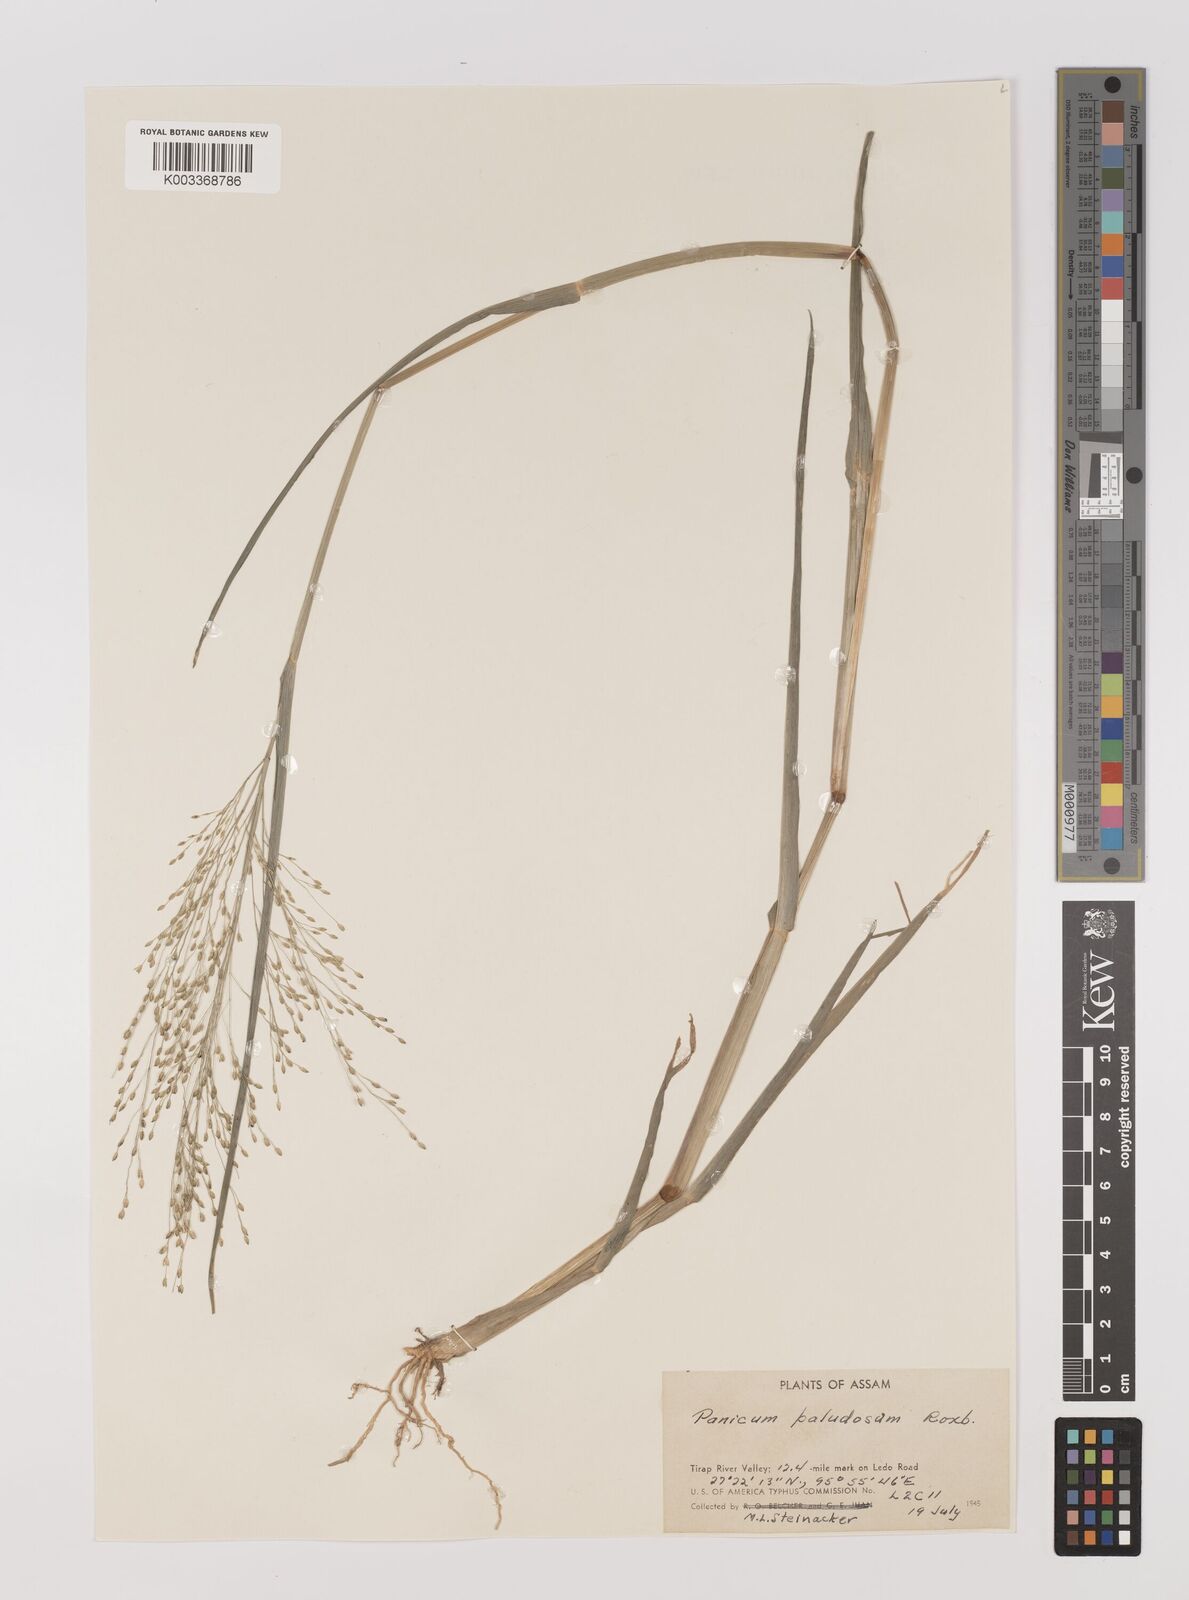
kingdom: Plantae
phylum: Tracheophyta
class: Liliopsida
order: Poales
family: Poaceae
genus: Louisiella
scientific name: Louisiella paludosa
